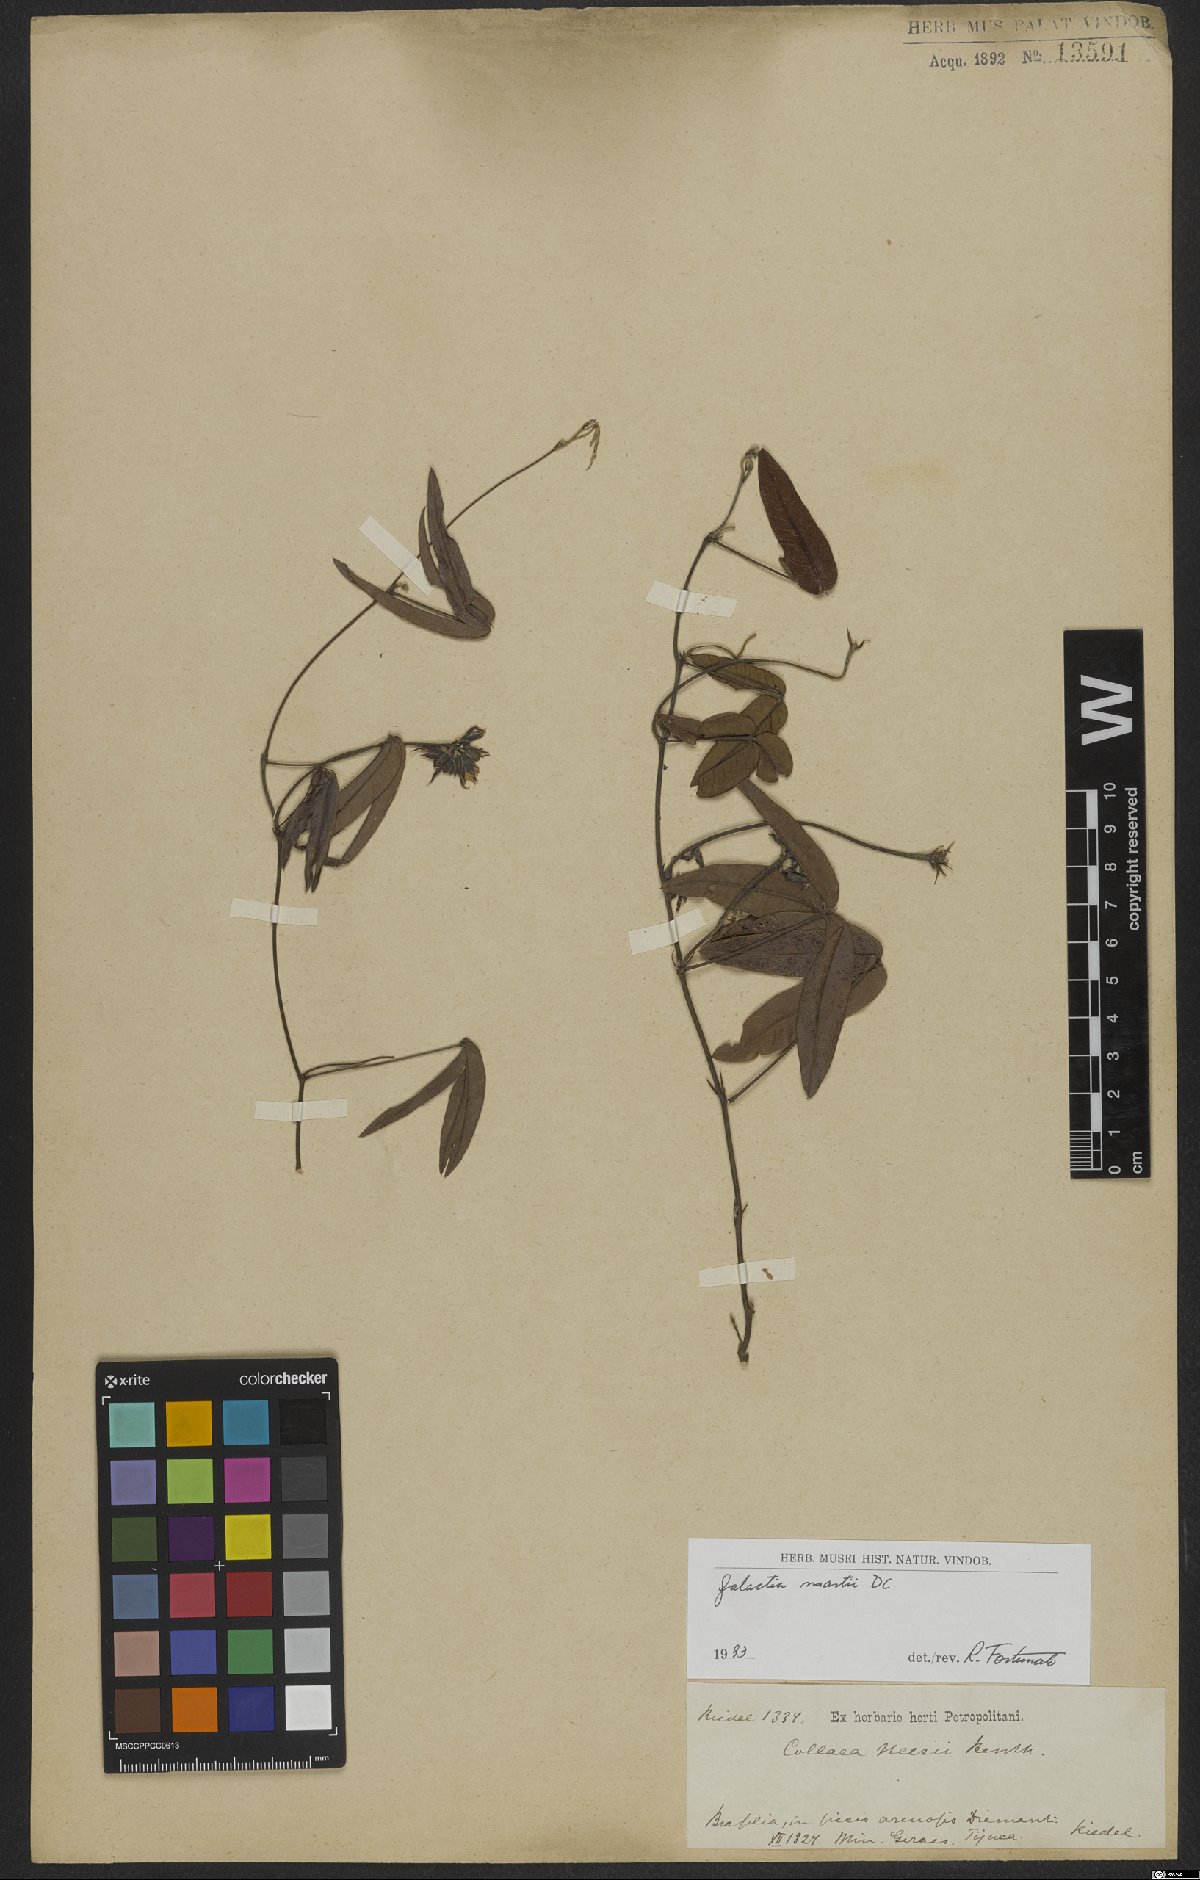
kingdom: Plantae
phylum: Tracheophyta
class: Magnoliopsida
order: Fabales
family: Fabaceae
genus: Betencourtia
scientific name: Betencourtia martii
